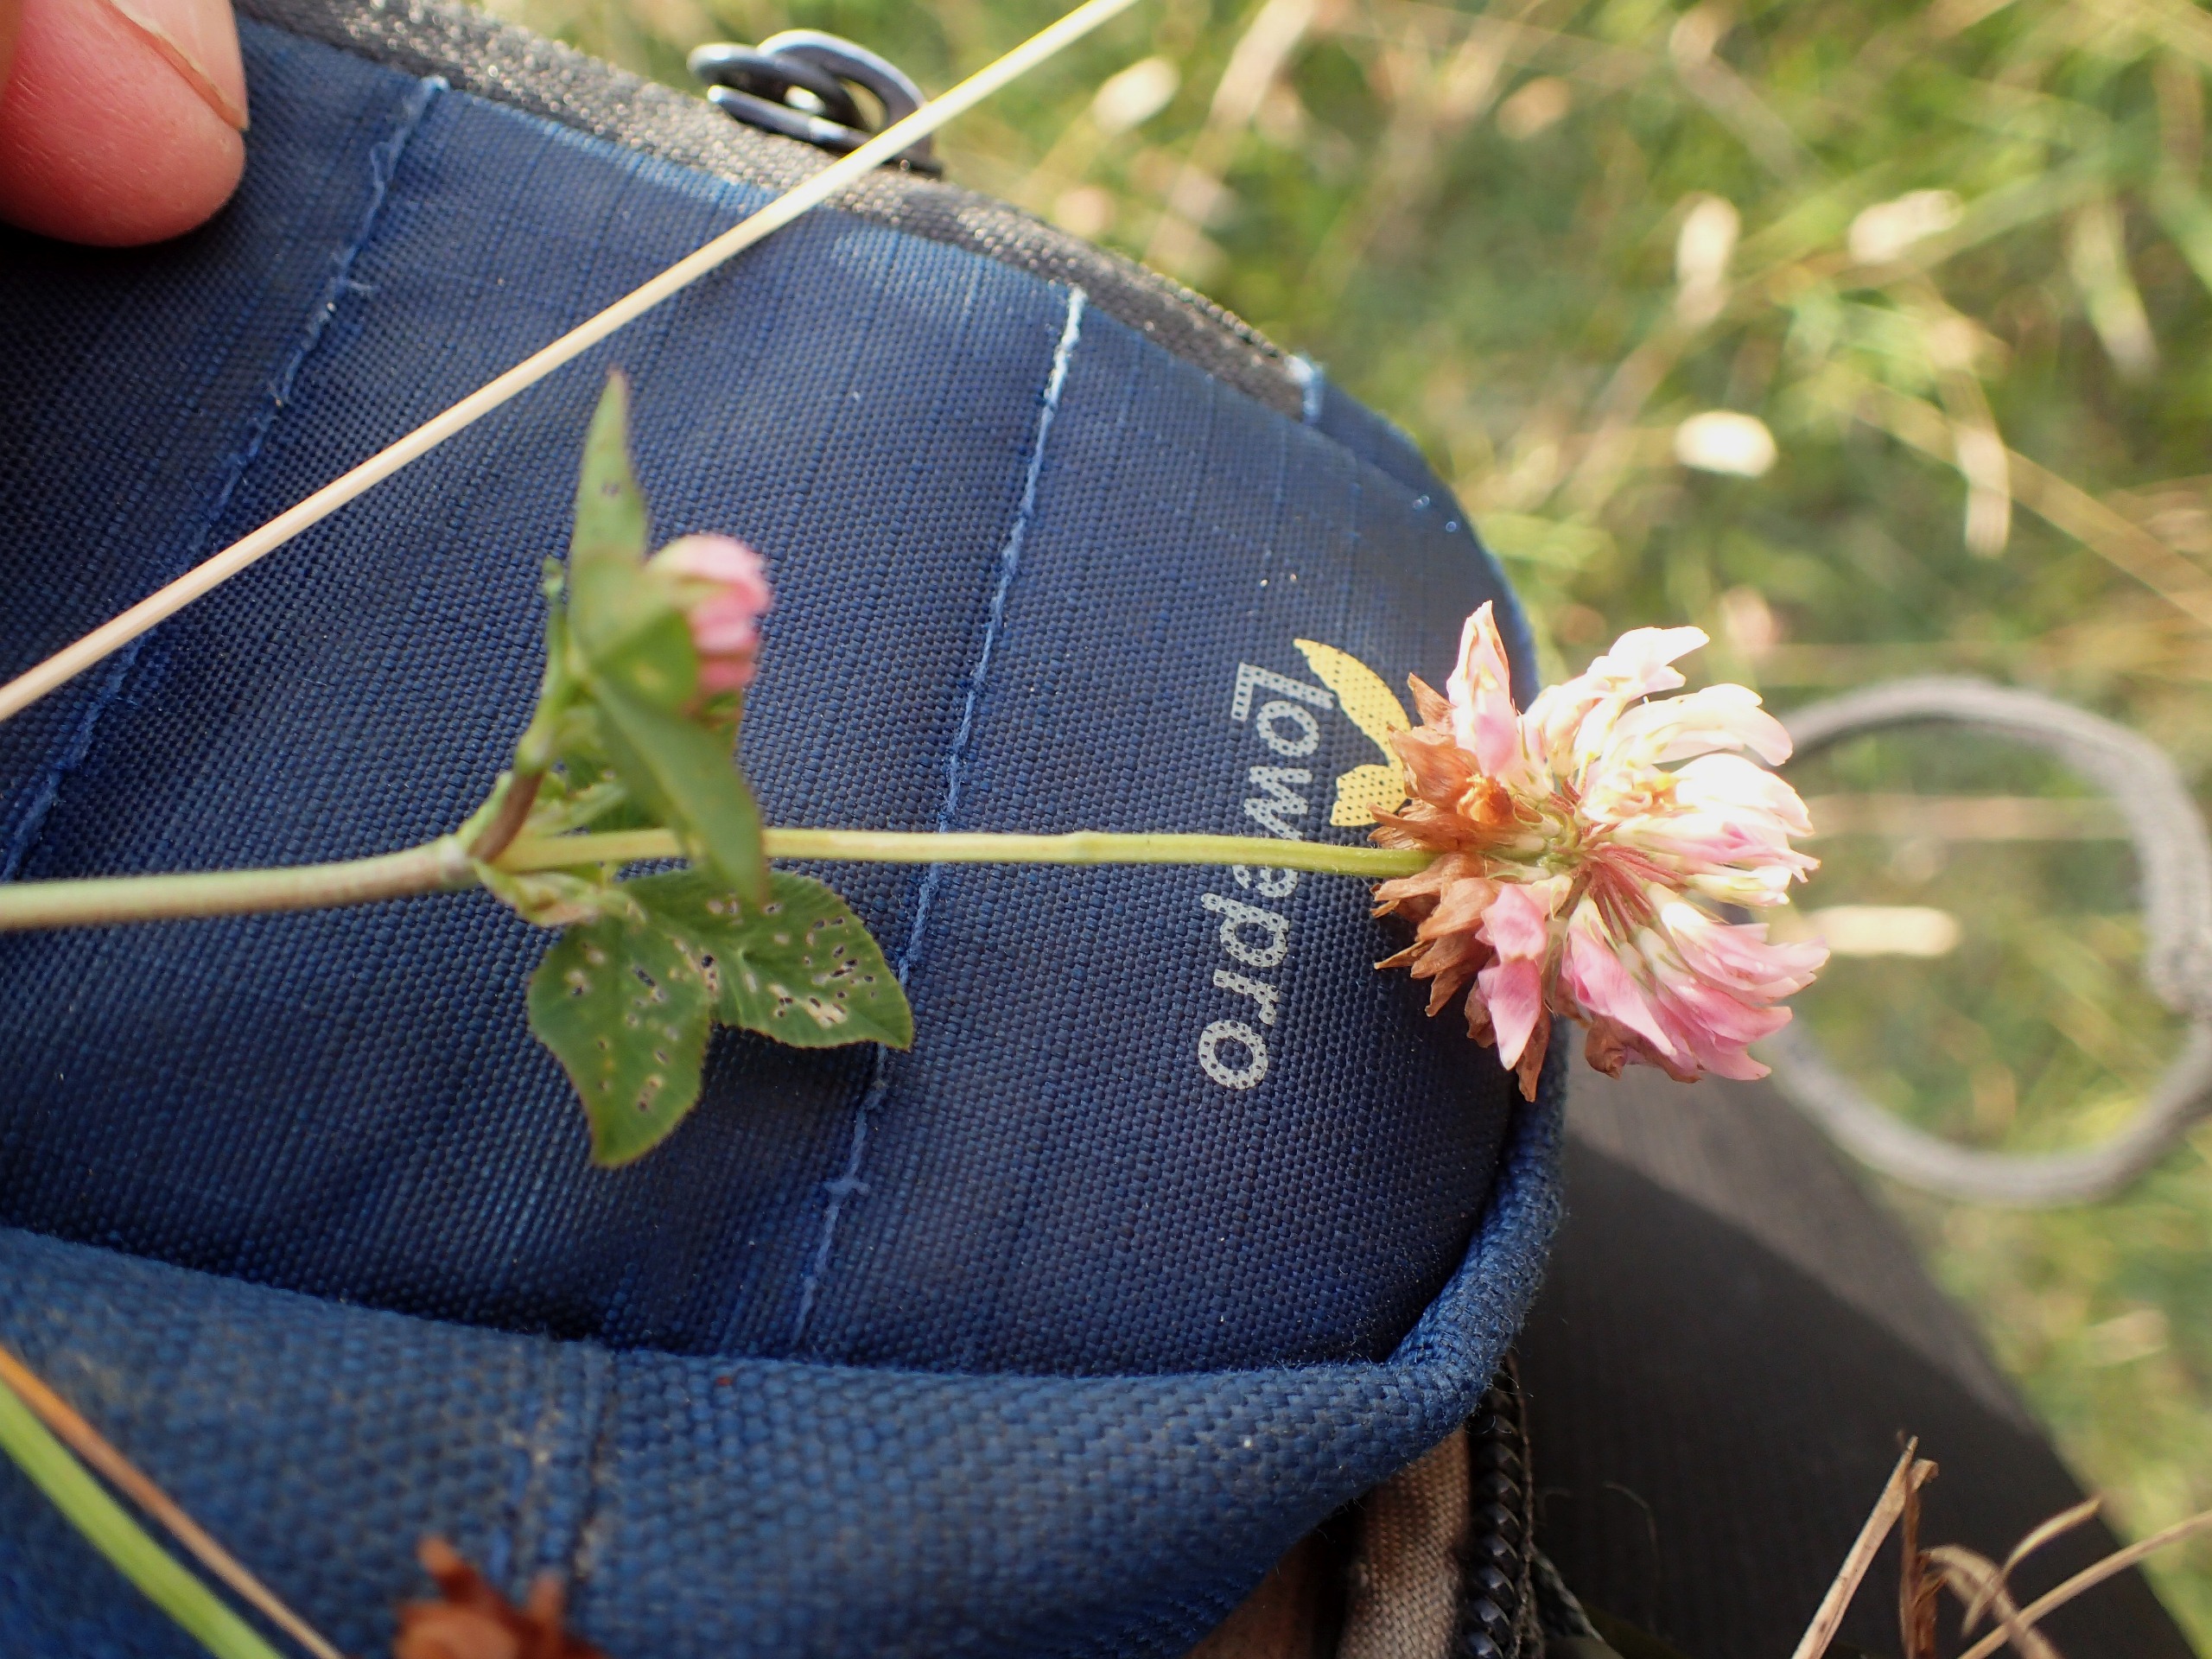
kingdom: Plantae
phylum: Tracheophyta
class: Magnoliopsida
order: Fabales
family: Fabaceae
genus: Trifolium
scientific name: Trifolium hybridum
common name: Alsike-kløver
